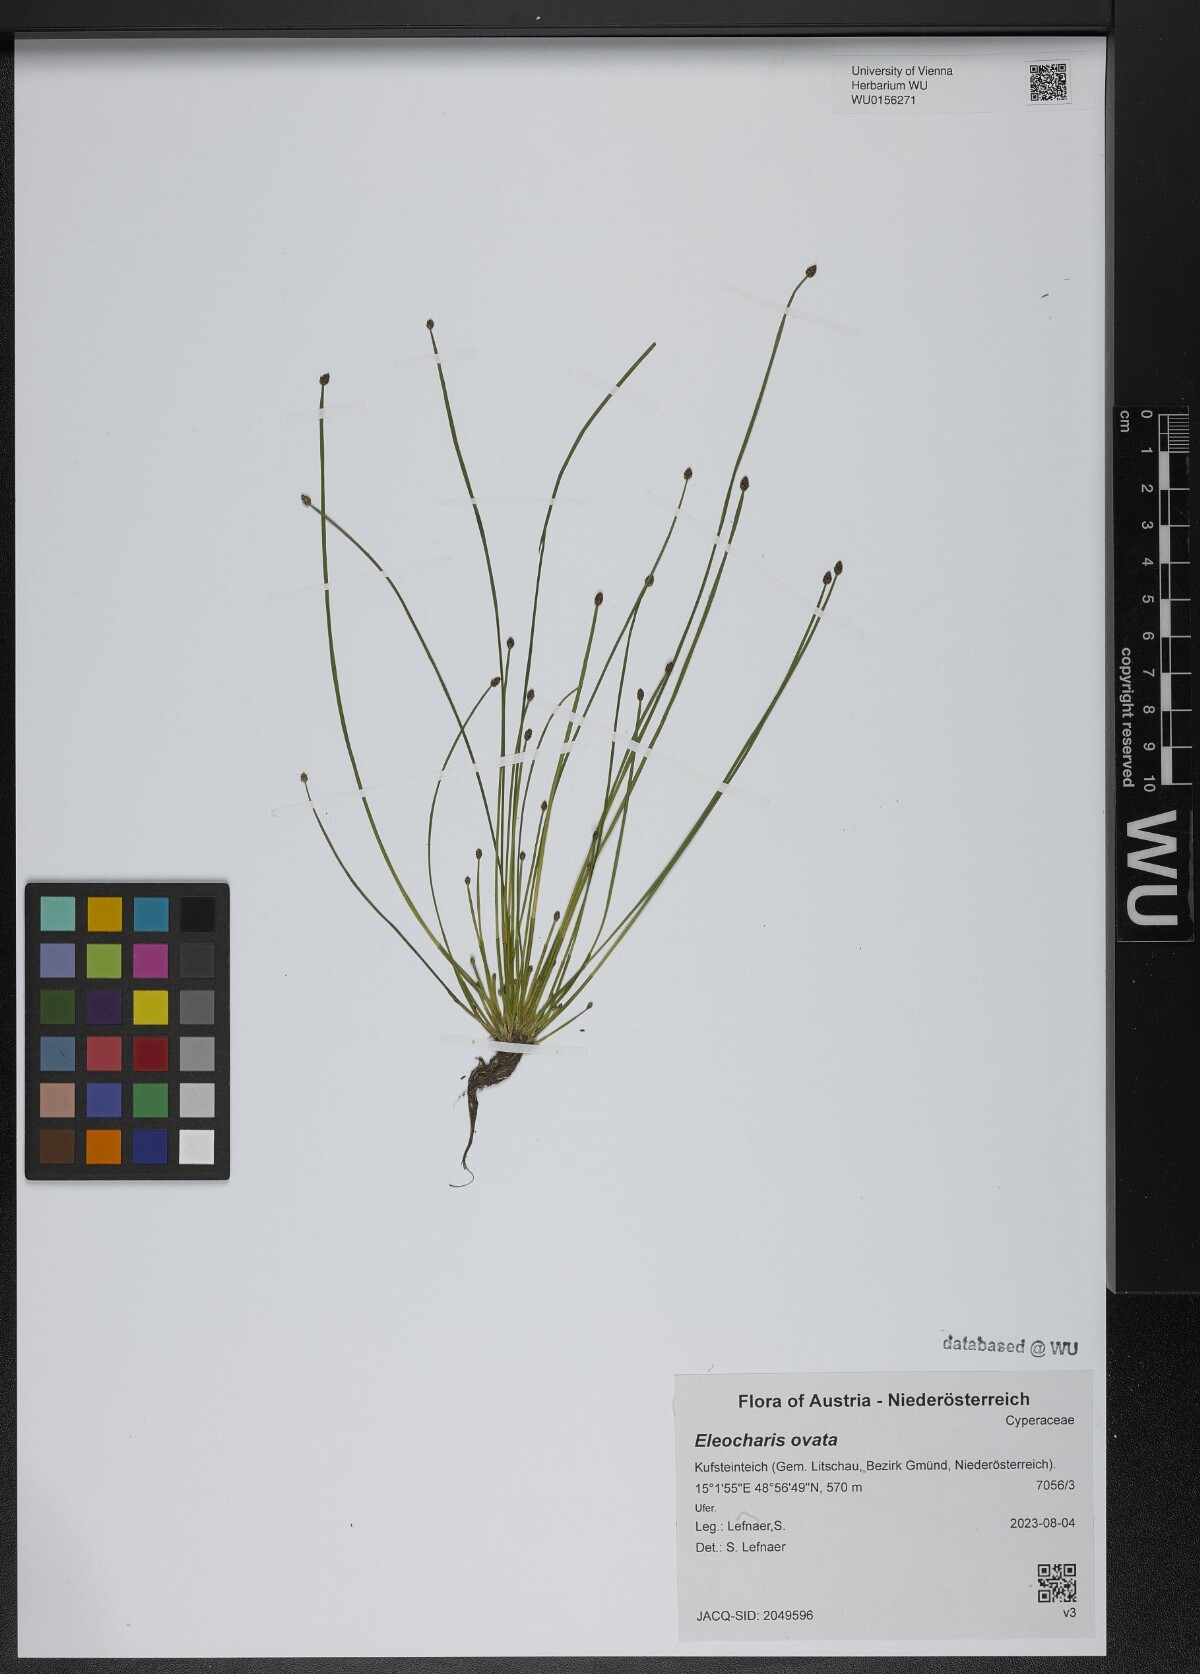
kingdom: Plantae
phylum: Tracheophyta
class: Liliopsida
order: Poales
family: Cyperaceae
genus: Eleocharis
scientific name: Eleocharis ovata
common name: Oval spike-rush
